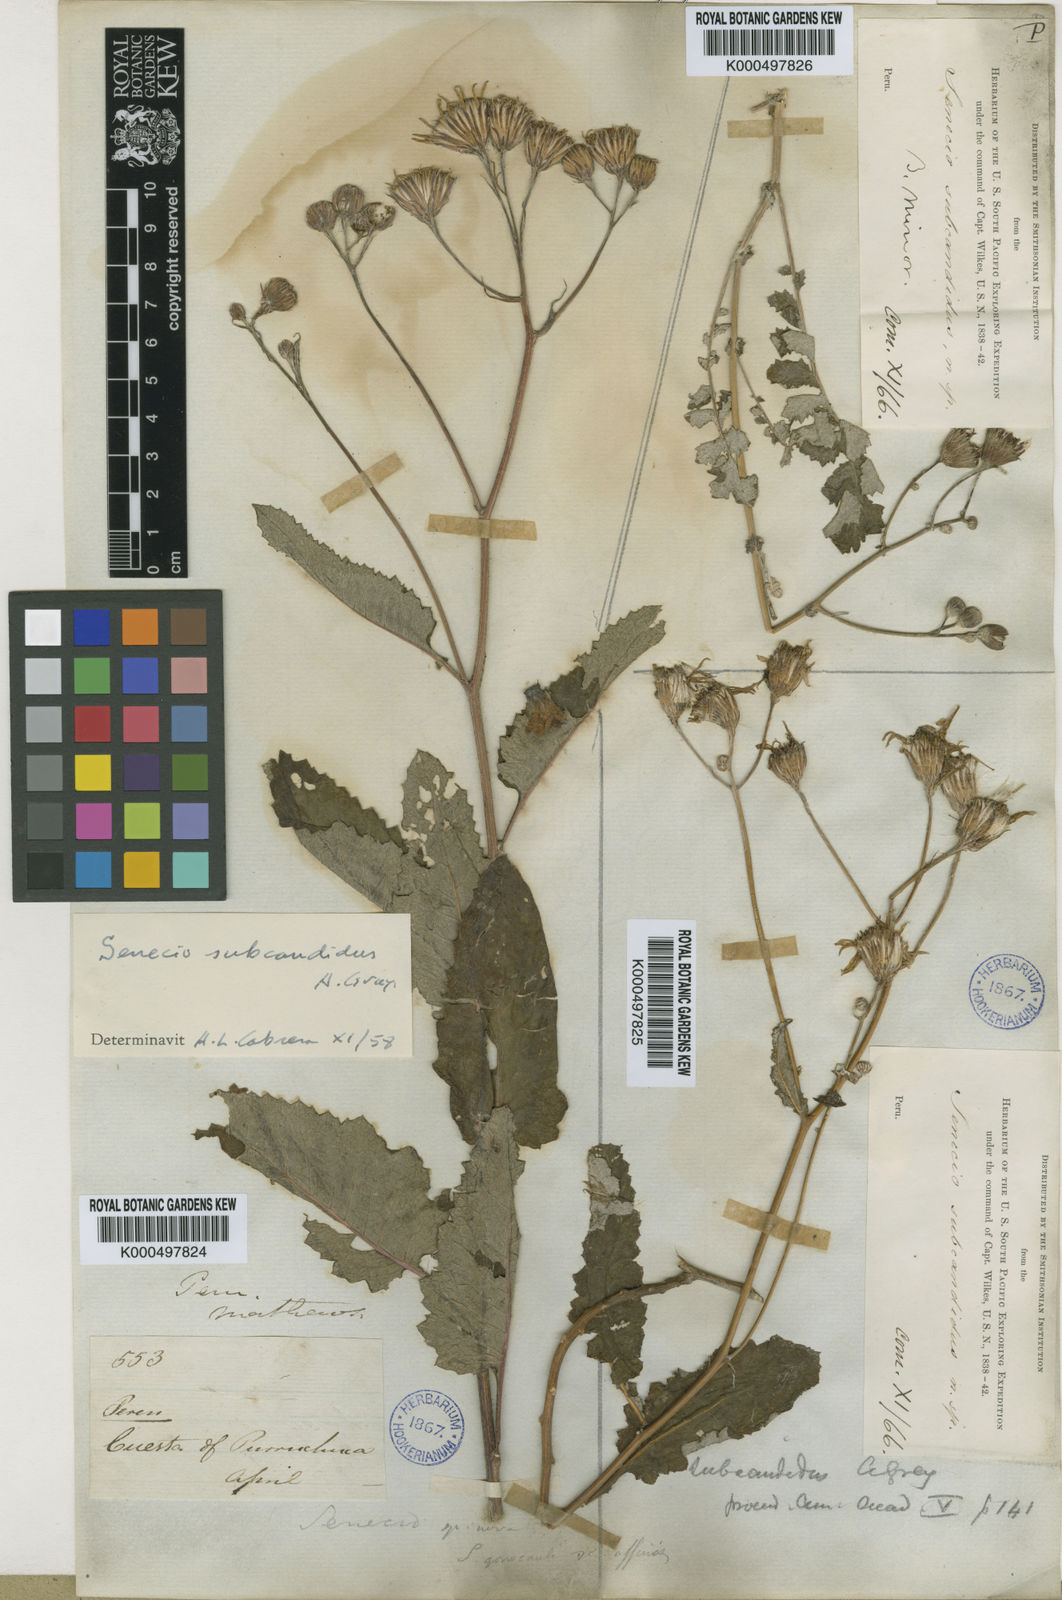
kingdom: Plantae
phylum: Tracheophyta
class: Magnoliopsida
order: Asterales
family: Asteraceae
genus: Lomanthus
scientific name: Lomanthus subcandidus
